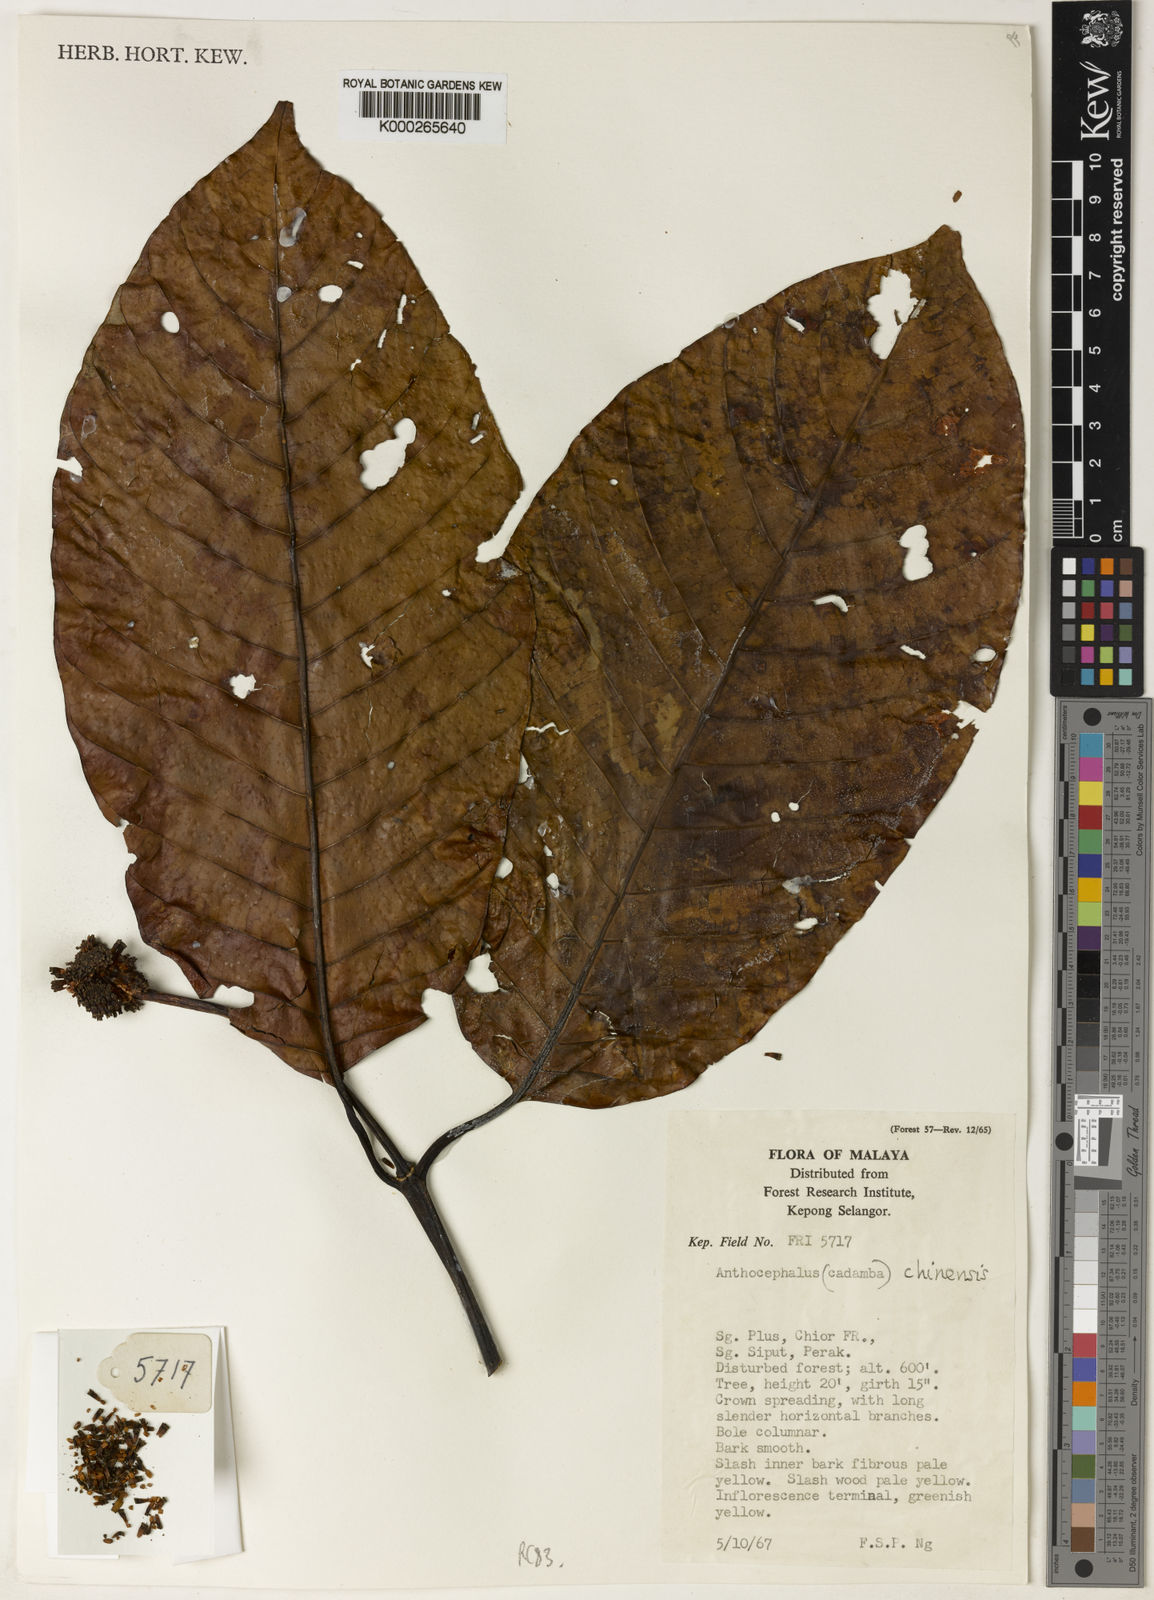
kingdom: Plantae
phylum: Tracheophyta
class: Magnoliopsida
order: Gentianales
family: Rubiaceae
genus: Neolamarckia
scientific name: Neolamarckia cadamba
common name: Leichhardt-pine
